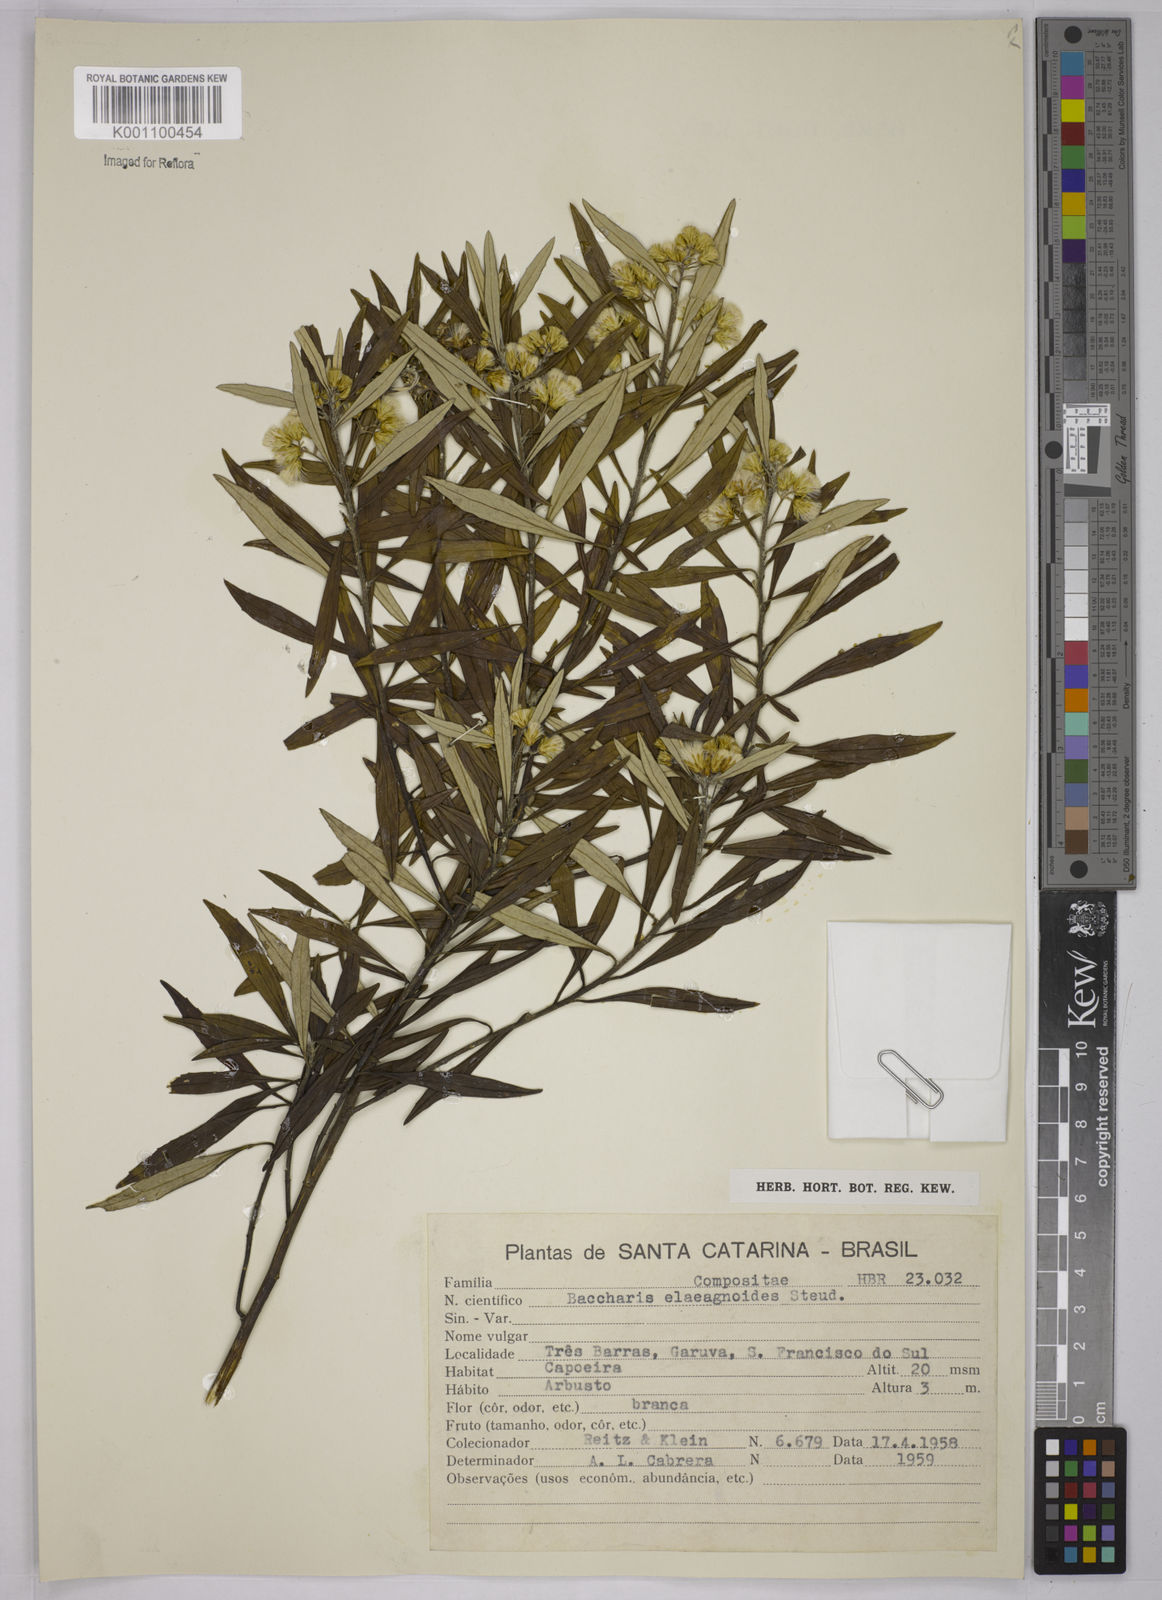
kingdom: Plantae
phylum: Tracheophyta
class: Magnoliopsida
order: Asterales
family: Asteraceae
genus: Baccharis
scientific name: Baccharis
